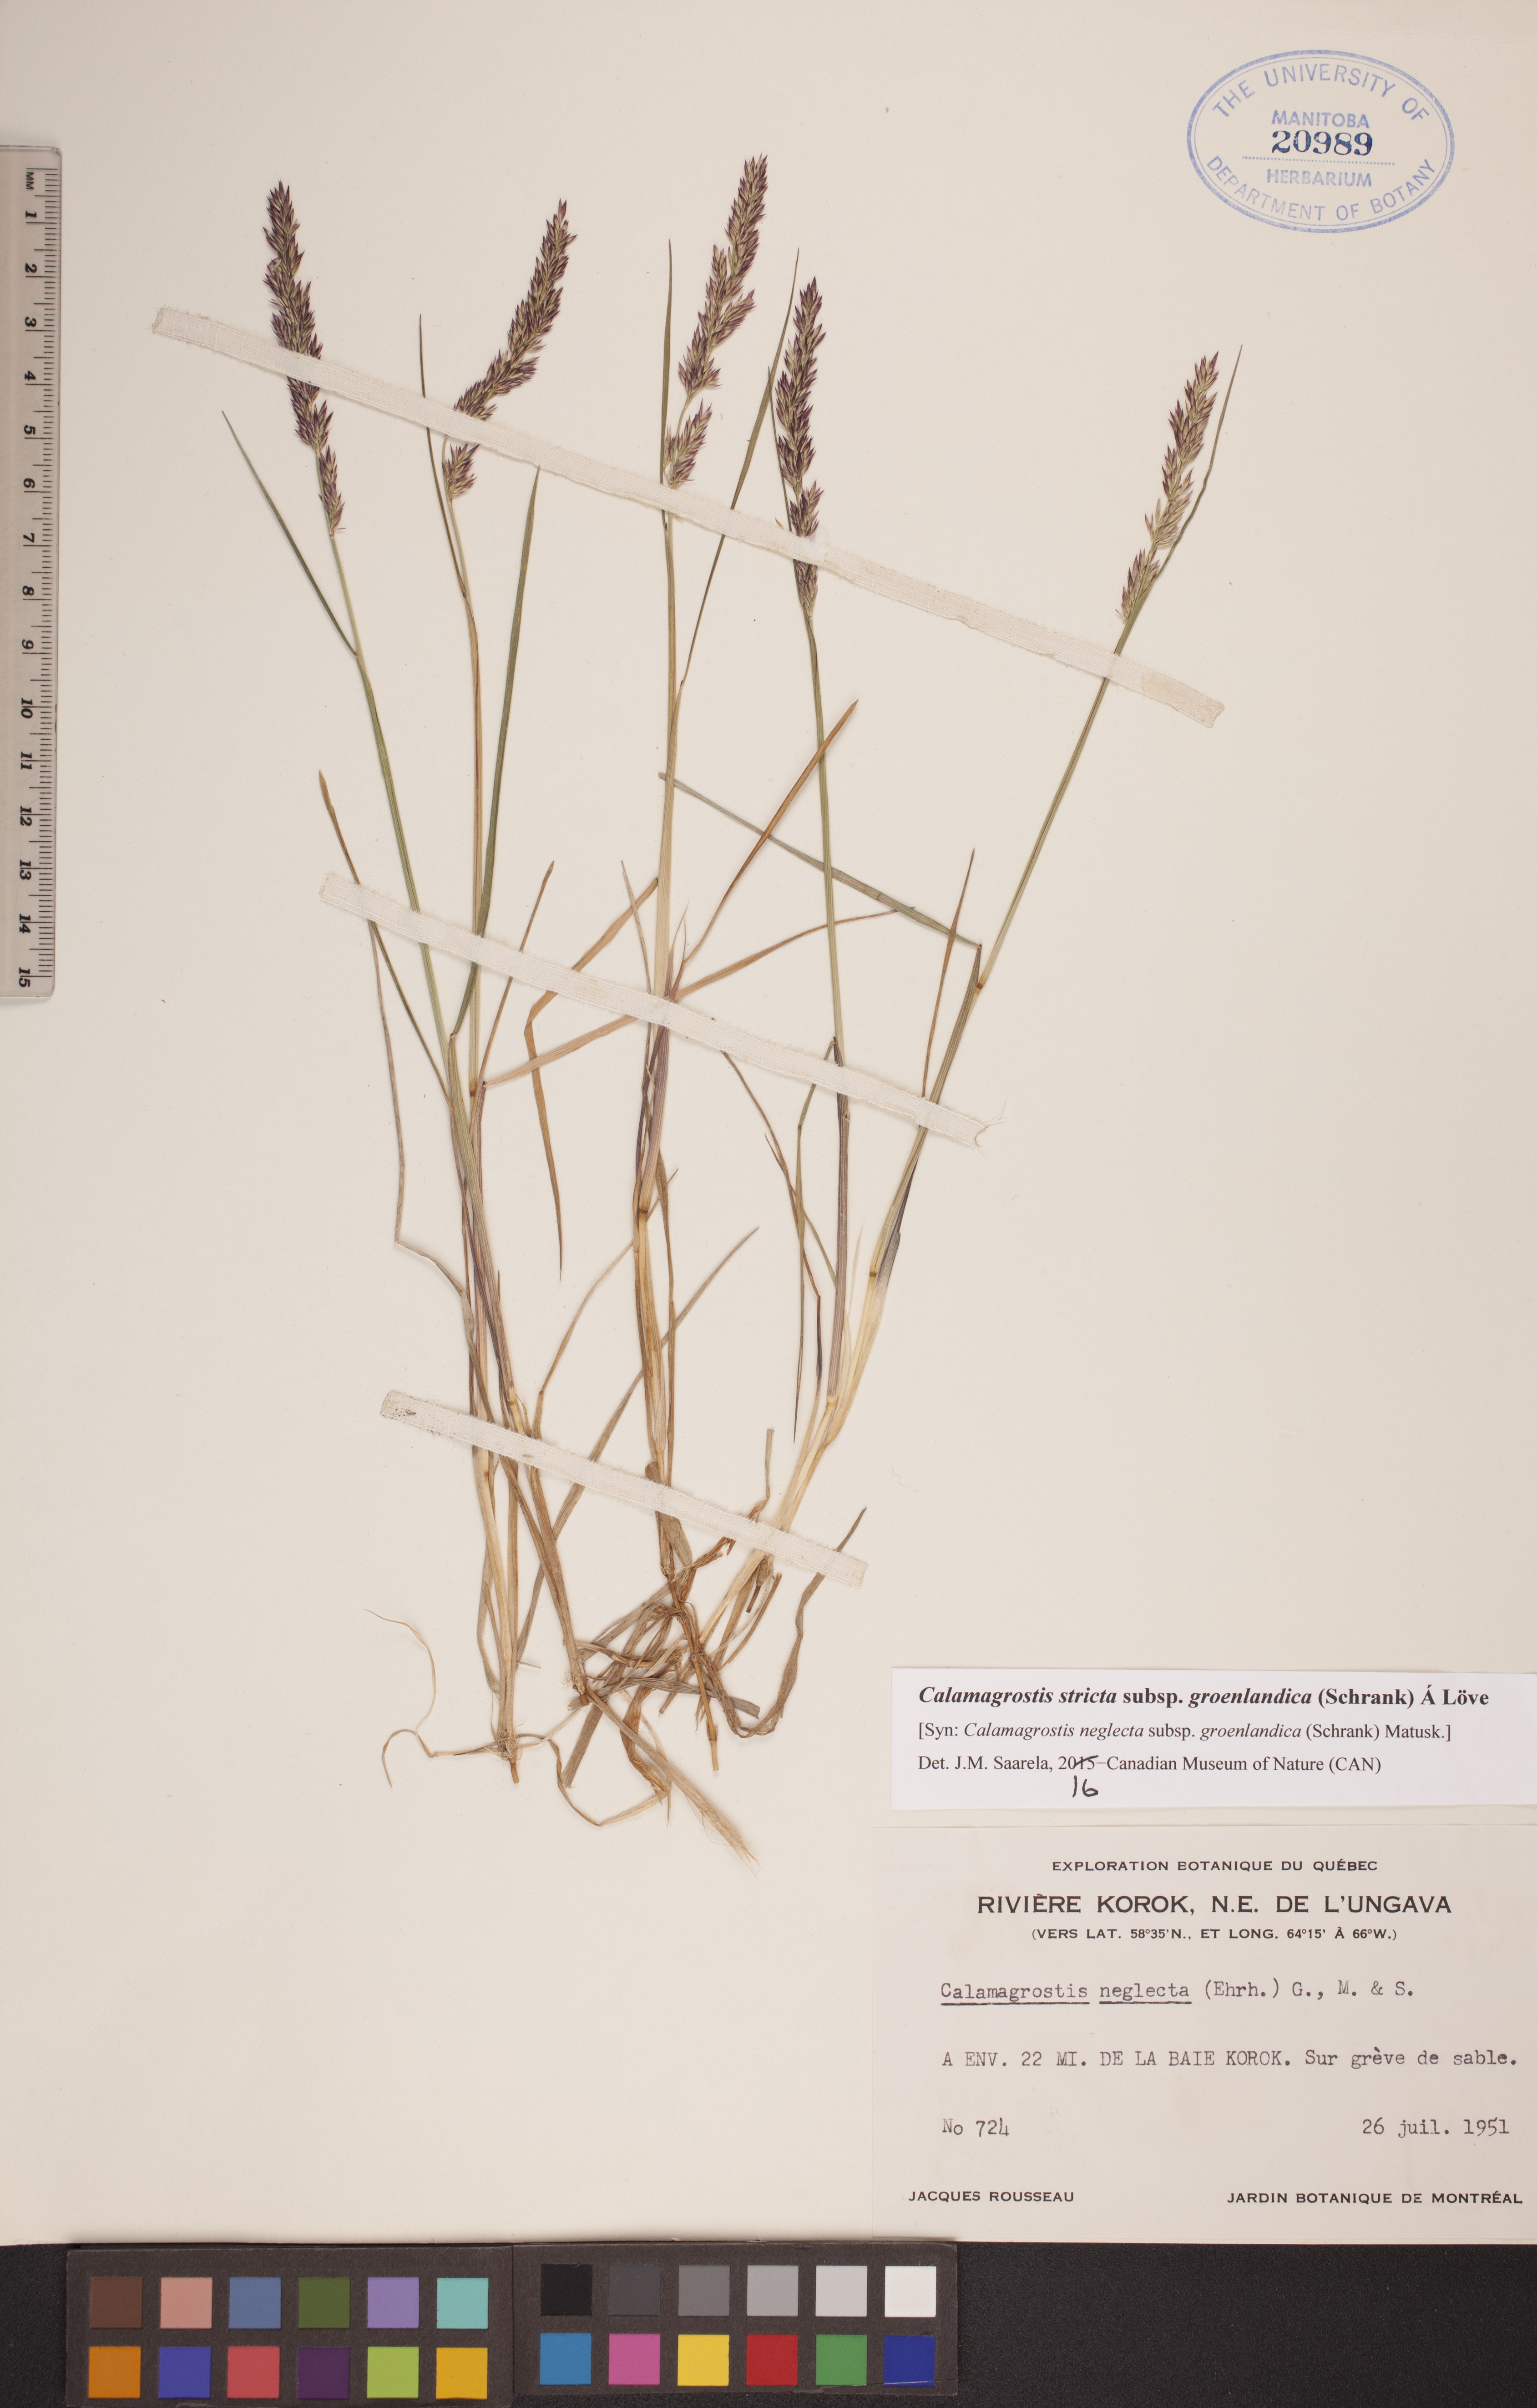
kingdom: Plantae
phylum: Tracheophyta
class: Liliopsida
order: Poales
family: Poaceae
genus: Calamagrostis
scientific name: Calamagrostis stricta
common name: Narrow small-reed
